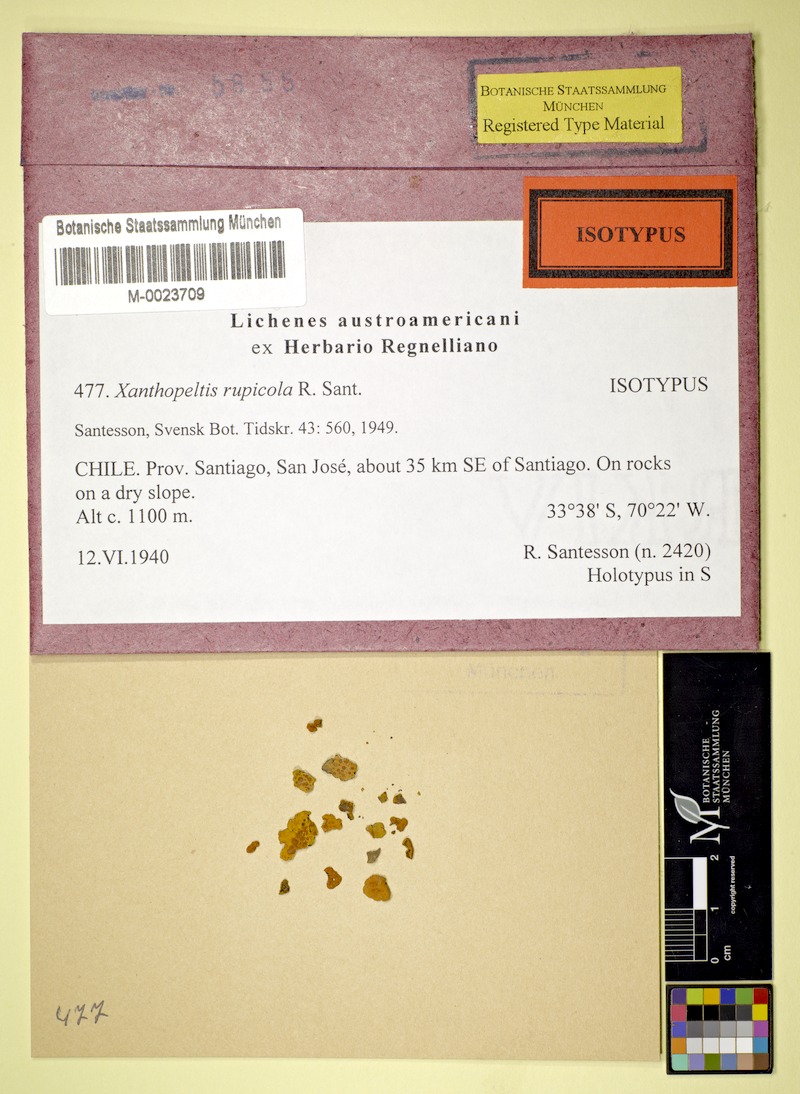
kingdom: Fungi
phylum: Ascomycota
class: Lecanoromycetes
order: Teloschistales
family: Teloschistaceae
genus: Xanthopeltis
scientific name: Xanthopeltis rupicola
